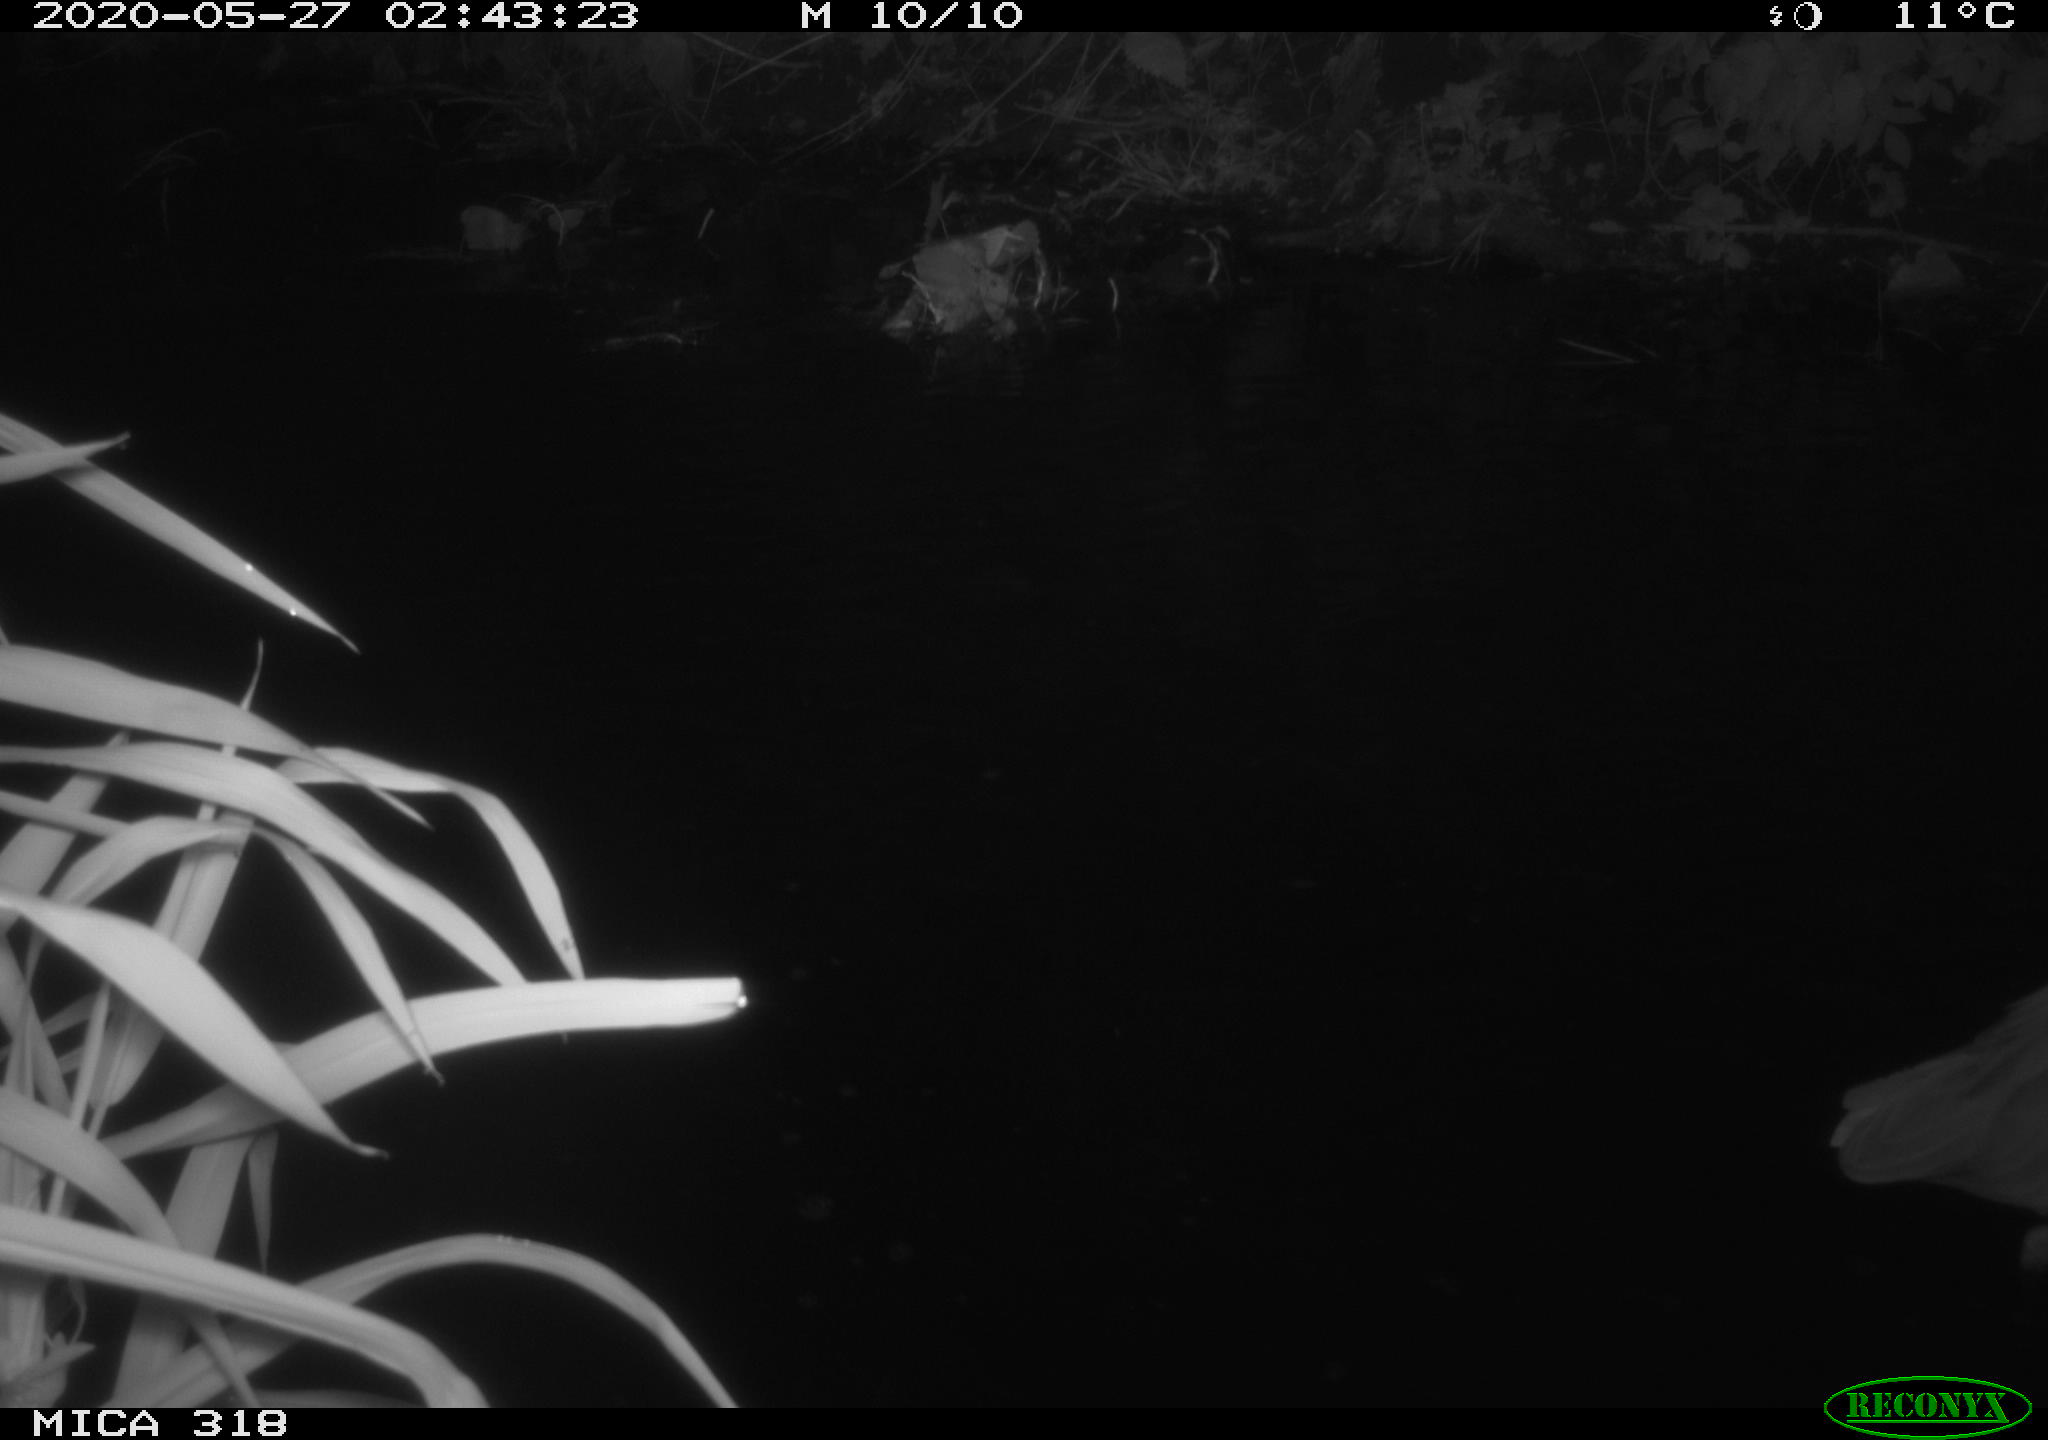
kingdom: Animalia
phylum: Chordata
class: Aves
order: Pelecaniformes
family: Ardeidae
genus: Ardea
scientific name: Ardea cinerea
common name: Grey heron
